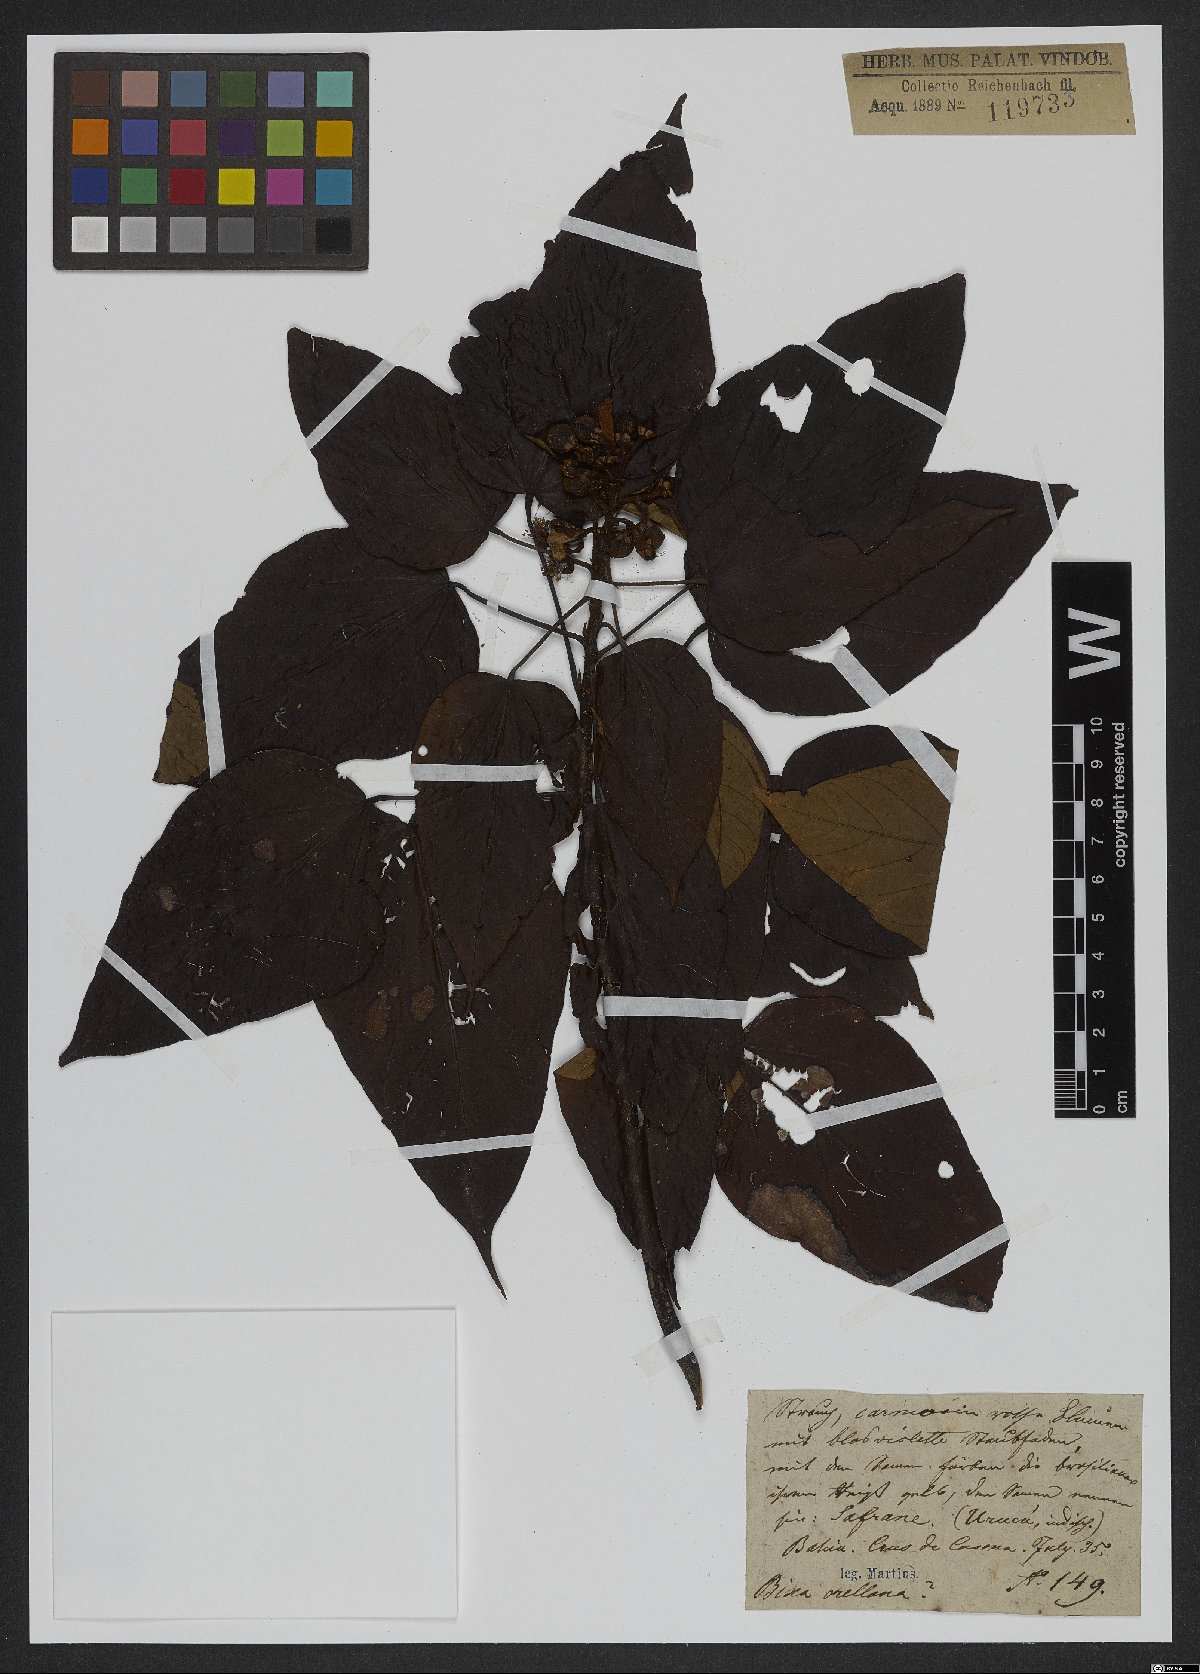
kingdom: Plantae
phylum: Tracheophyta
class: Magnoliopsida
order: Malpighiales
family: Euphorbiaceae
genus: Dalechampia
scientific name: Dalechampia ilheotica
